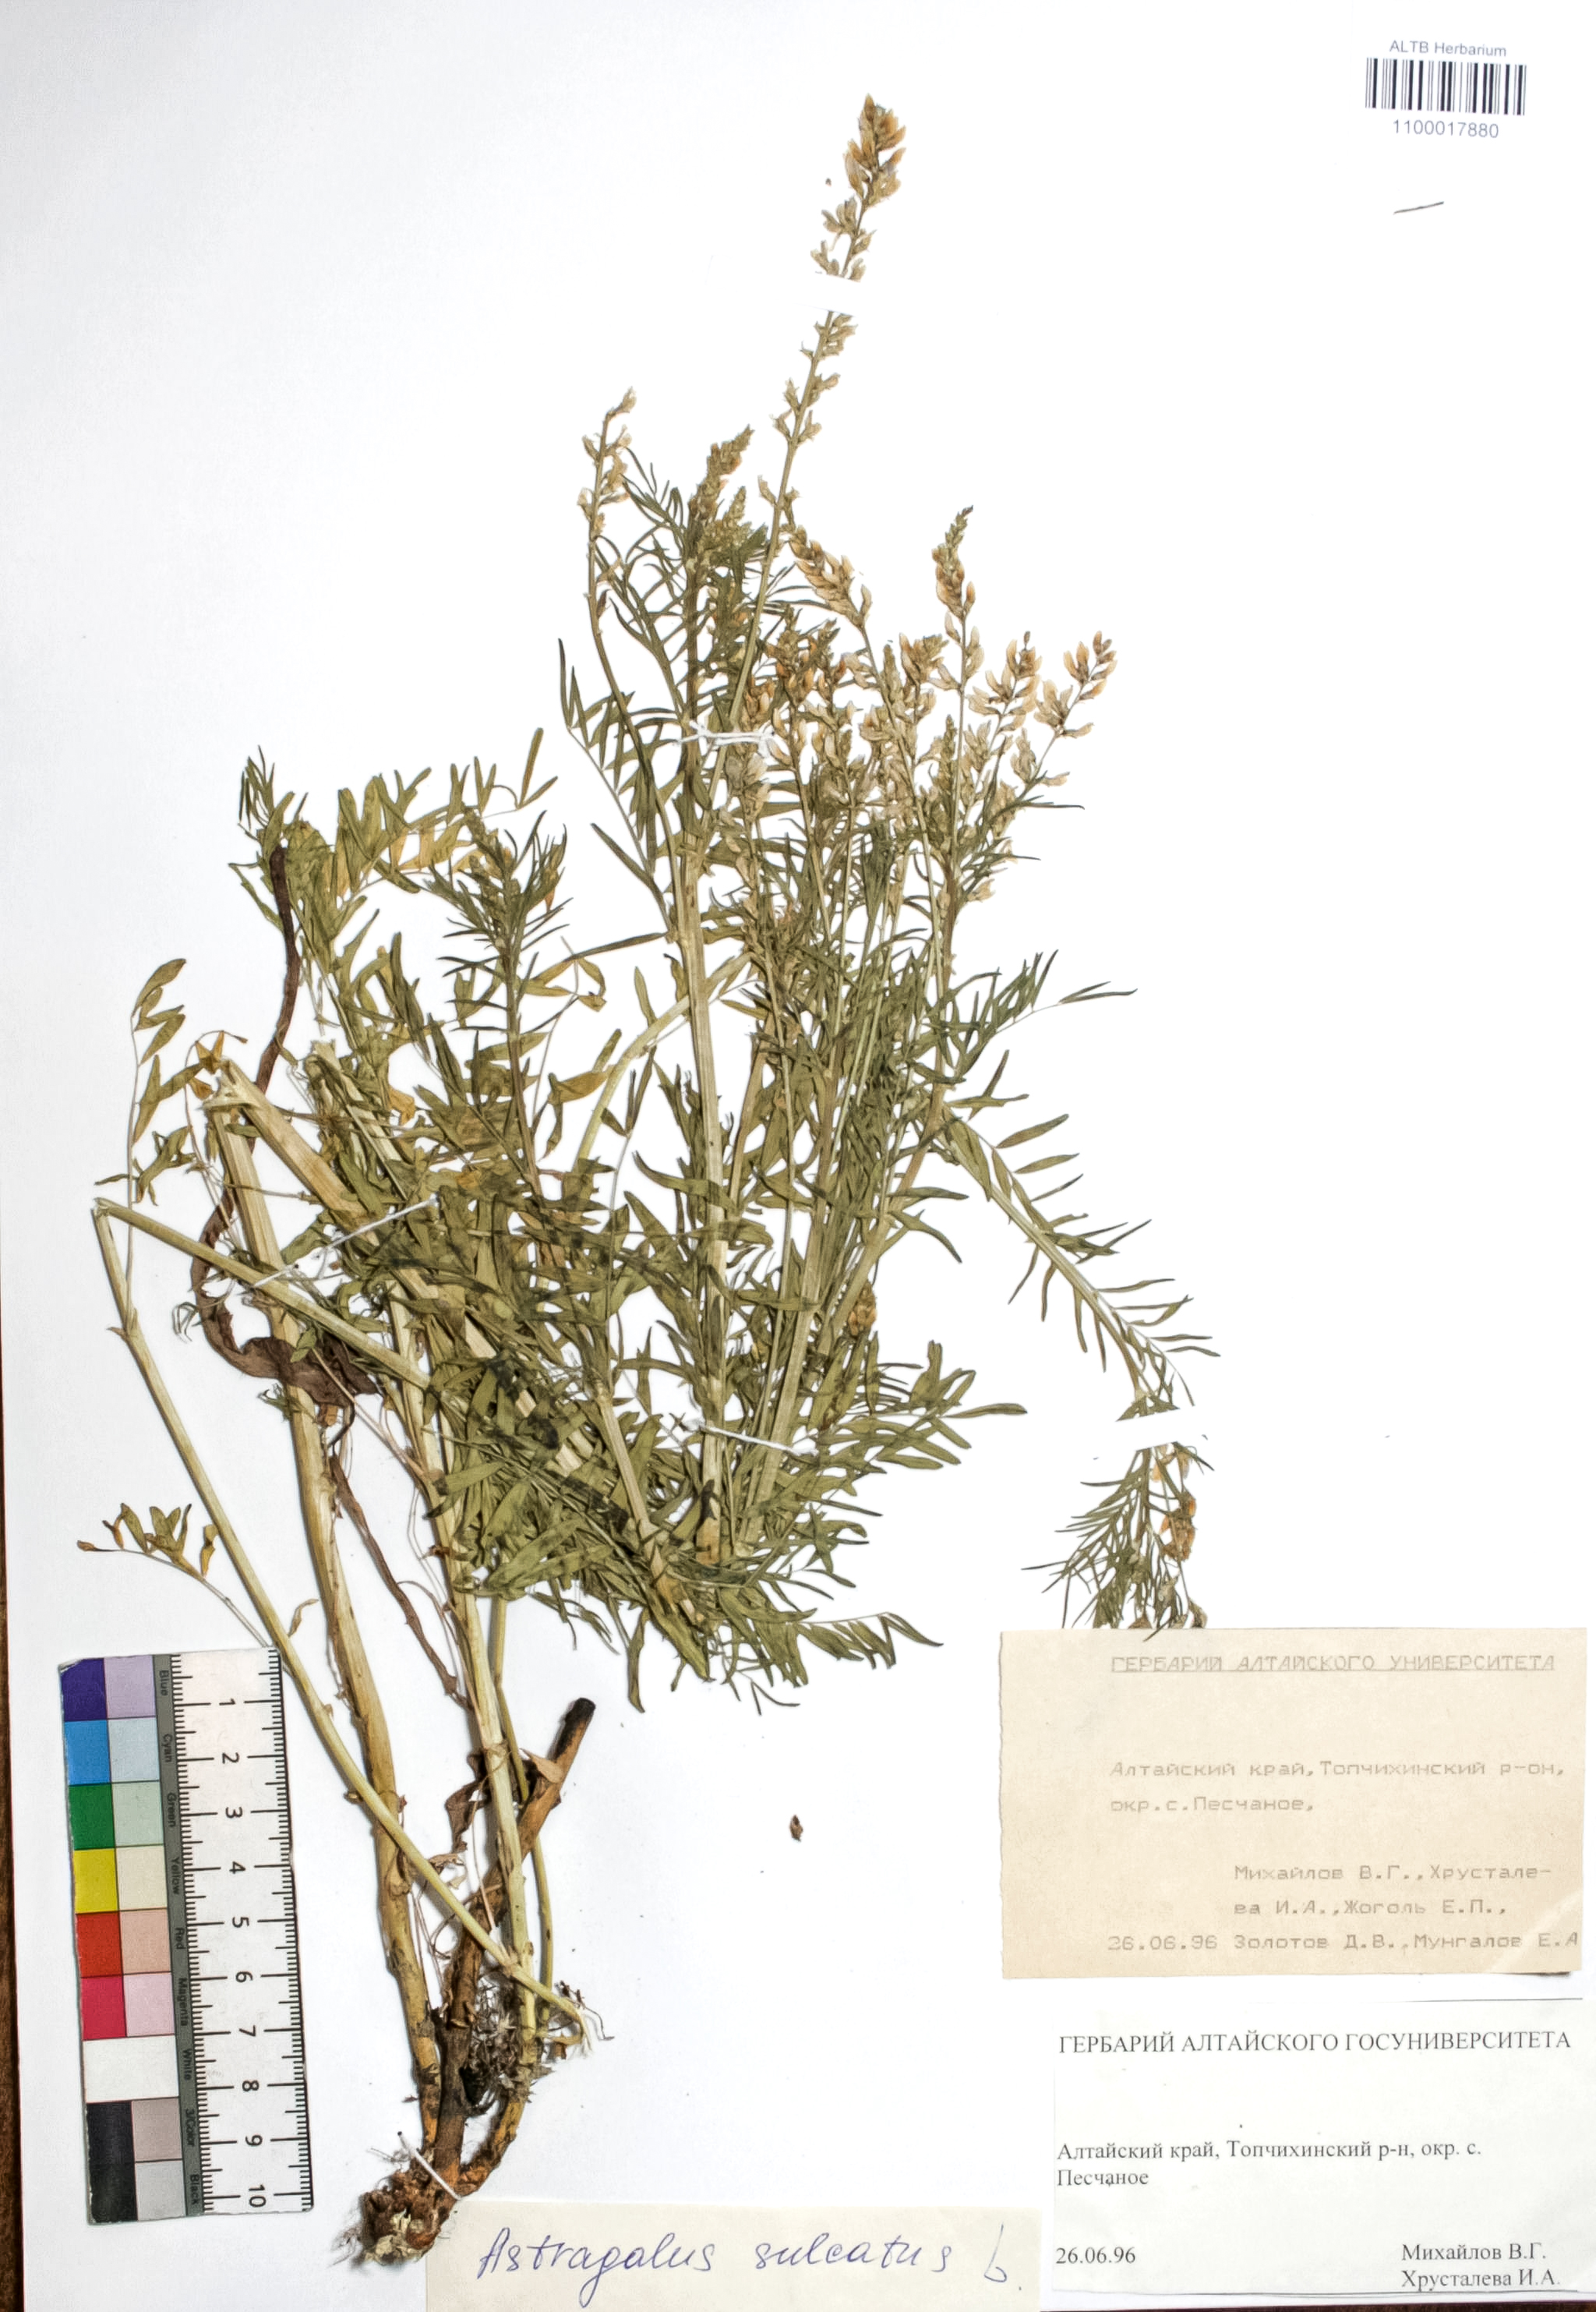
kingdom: Plantae
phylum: Tracheophyta
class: Magnoliopsida
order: Fabales
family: Fabaceae
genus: Astragalus
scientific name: Astragalus sulcatus
